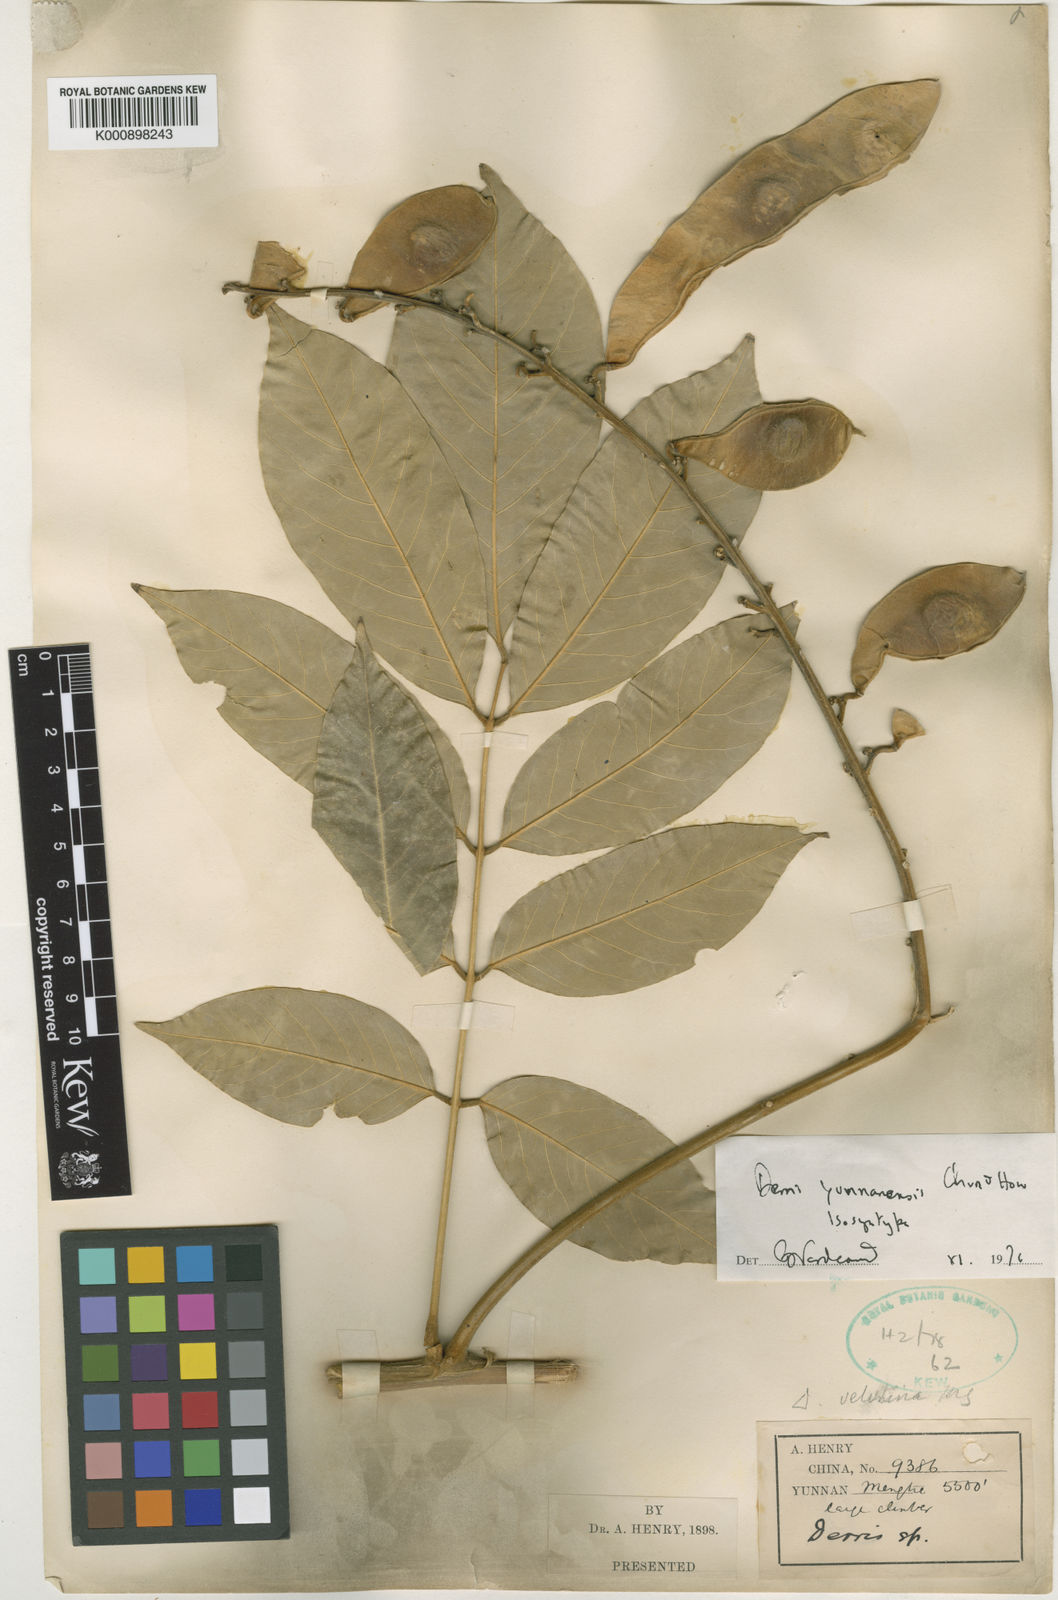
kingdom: Plantae
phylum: Tracheophyta
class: Magnoliopsida
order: Fabales
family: Fabaceae
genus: Ohashia
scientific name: Ohashia yunnanensis
